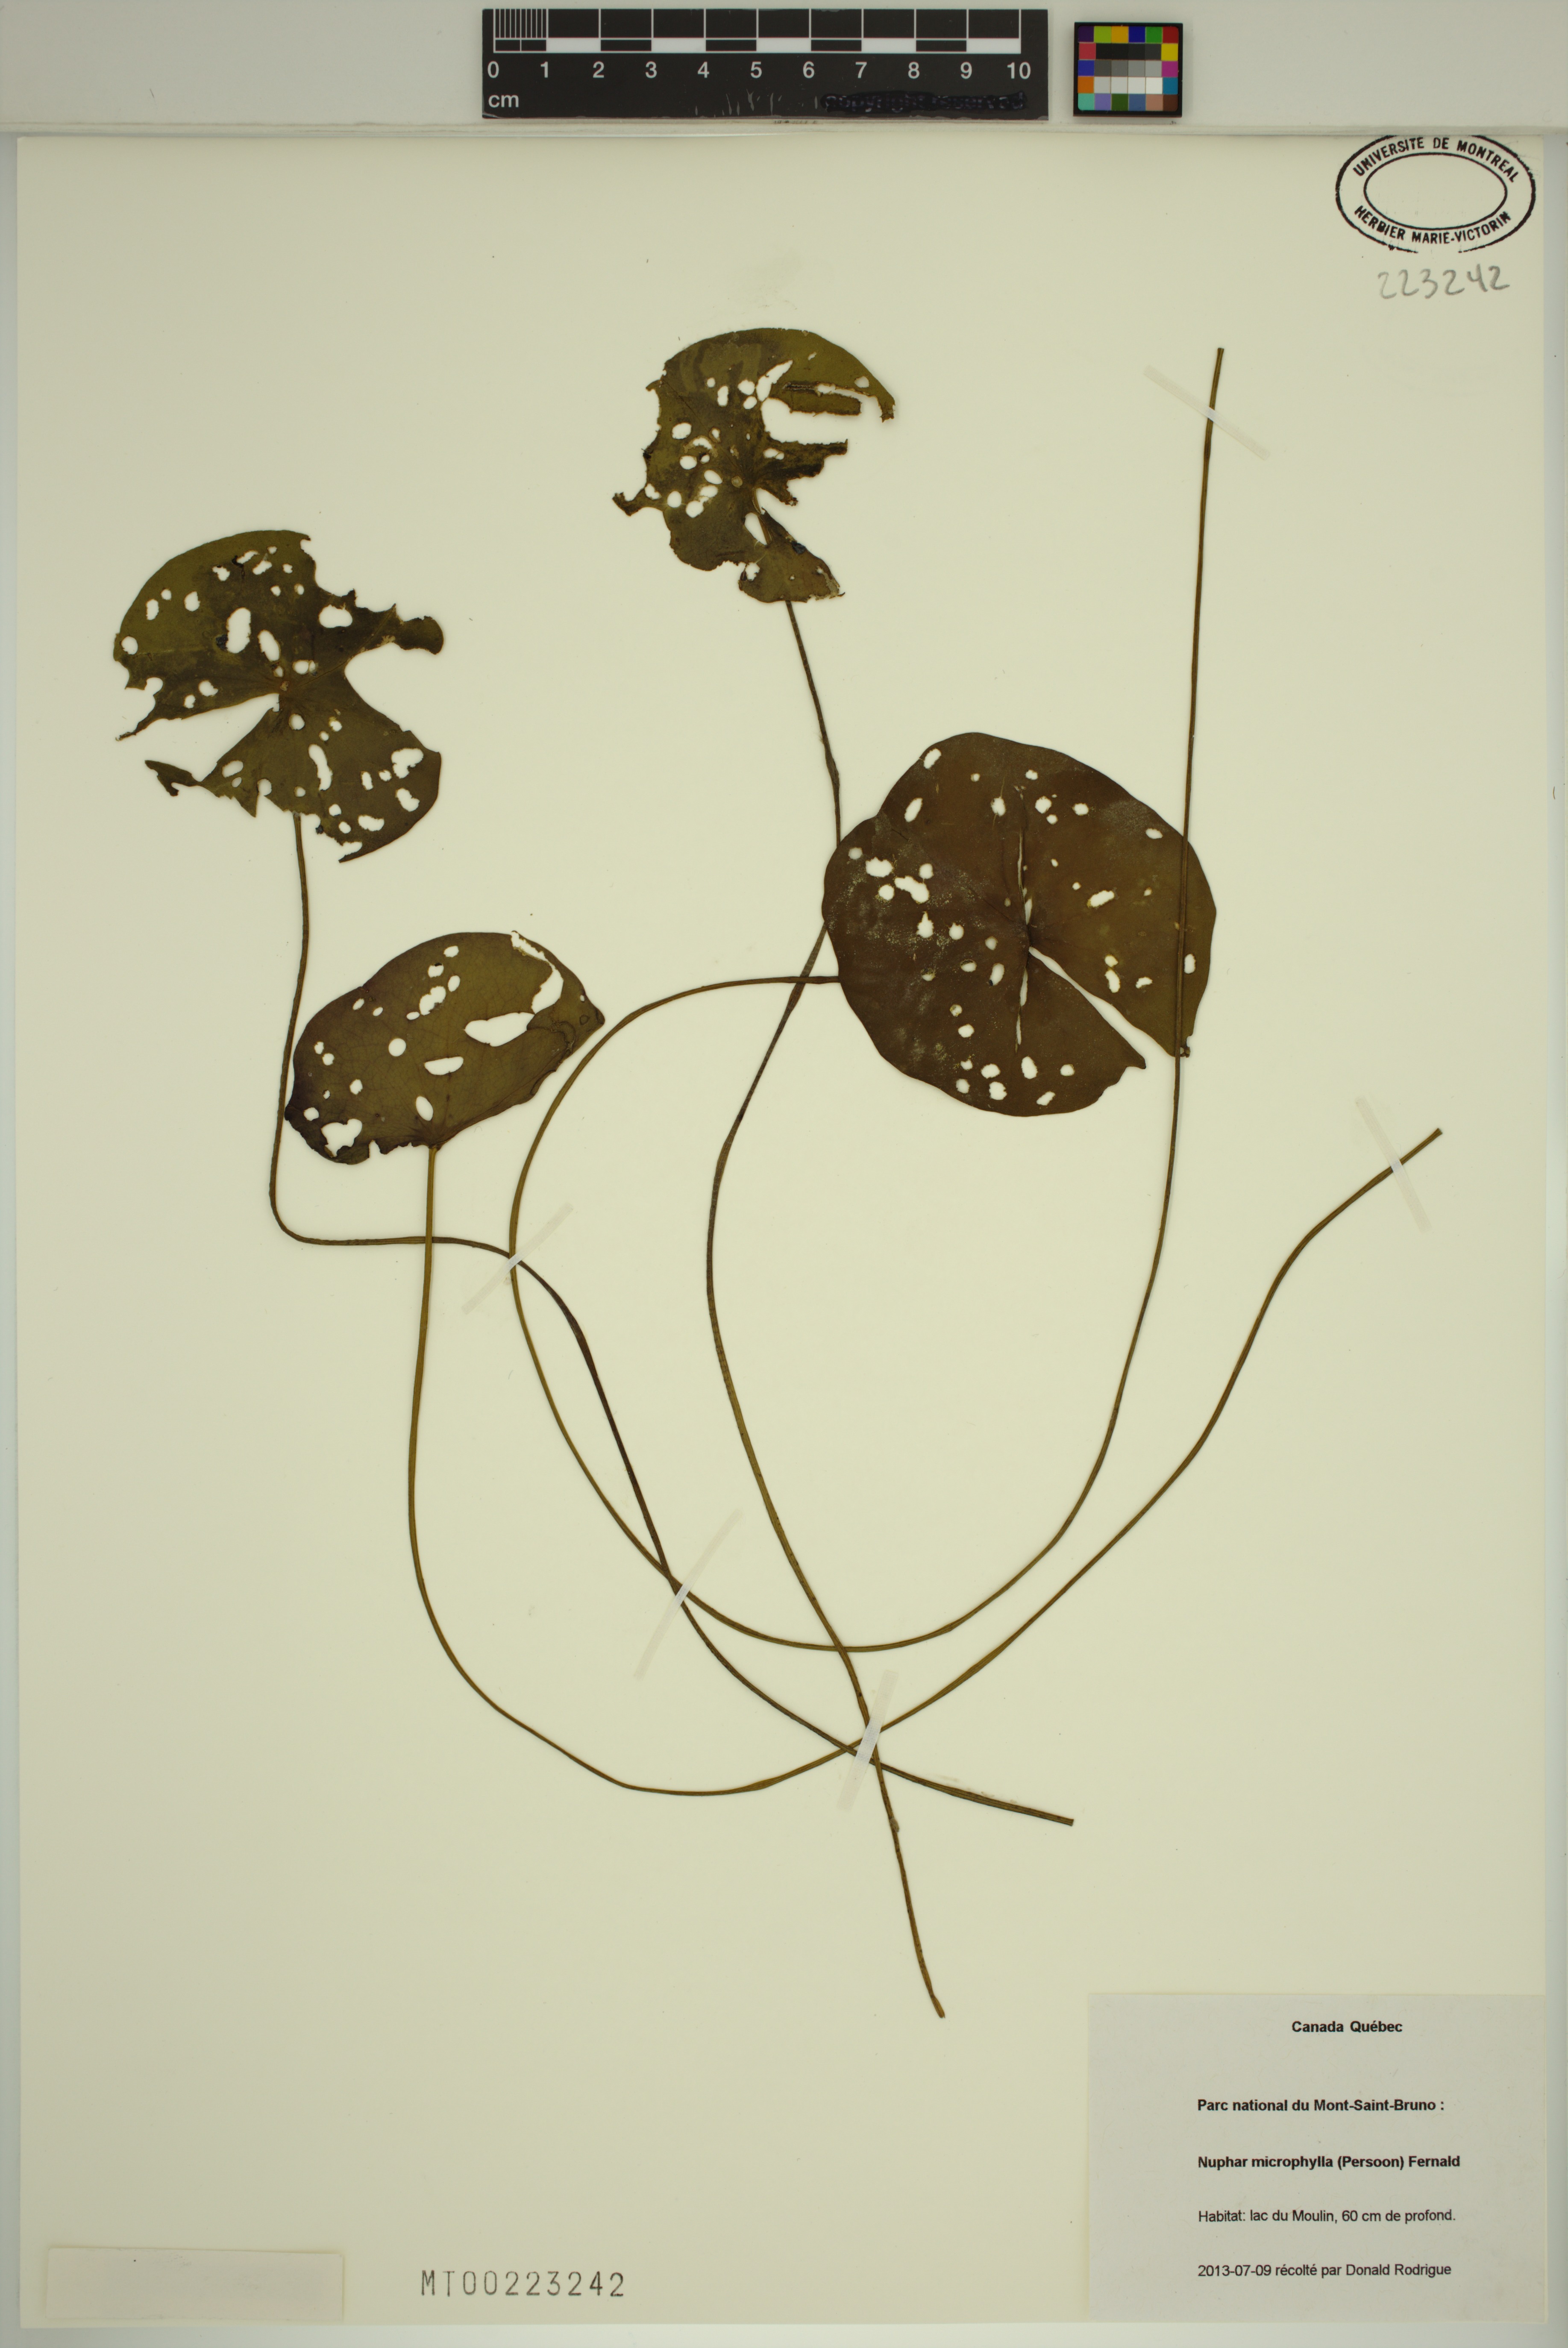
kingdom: Plantae
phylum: Tracheophyta
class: Magnoliopsida
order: Nymphaeales
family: Nymphaeaceae
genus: Nuphar
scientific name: Nuphar microphylla
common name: Small pond-lily
